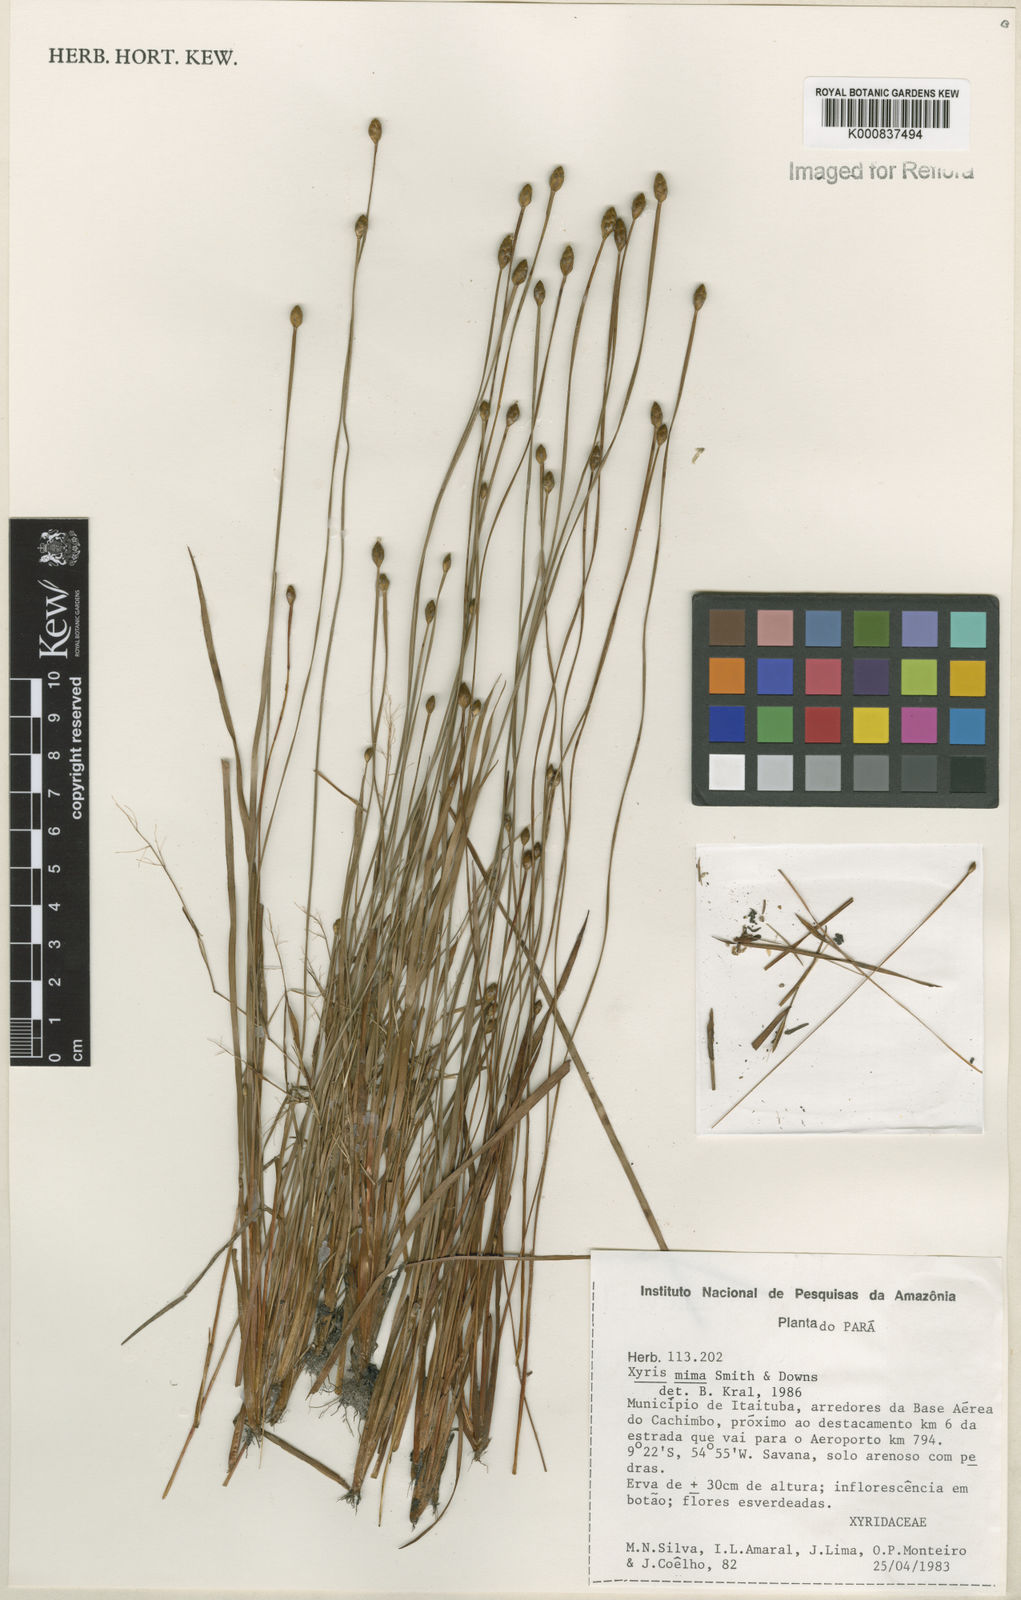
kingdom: Plantae
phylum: Tracheophyta
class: Liliopsida
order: Poales
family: Xyridaceae
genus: Xyris
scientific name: Xyris mima
